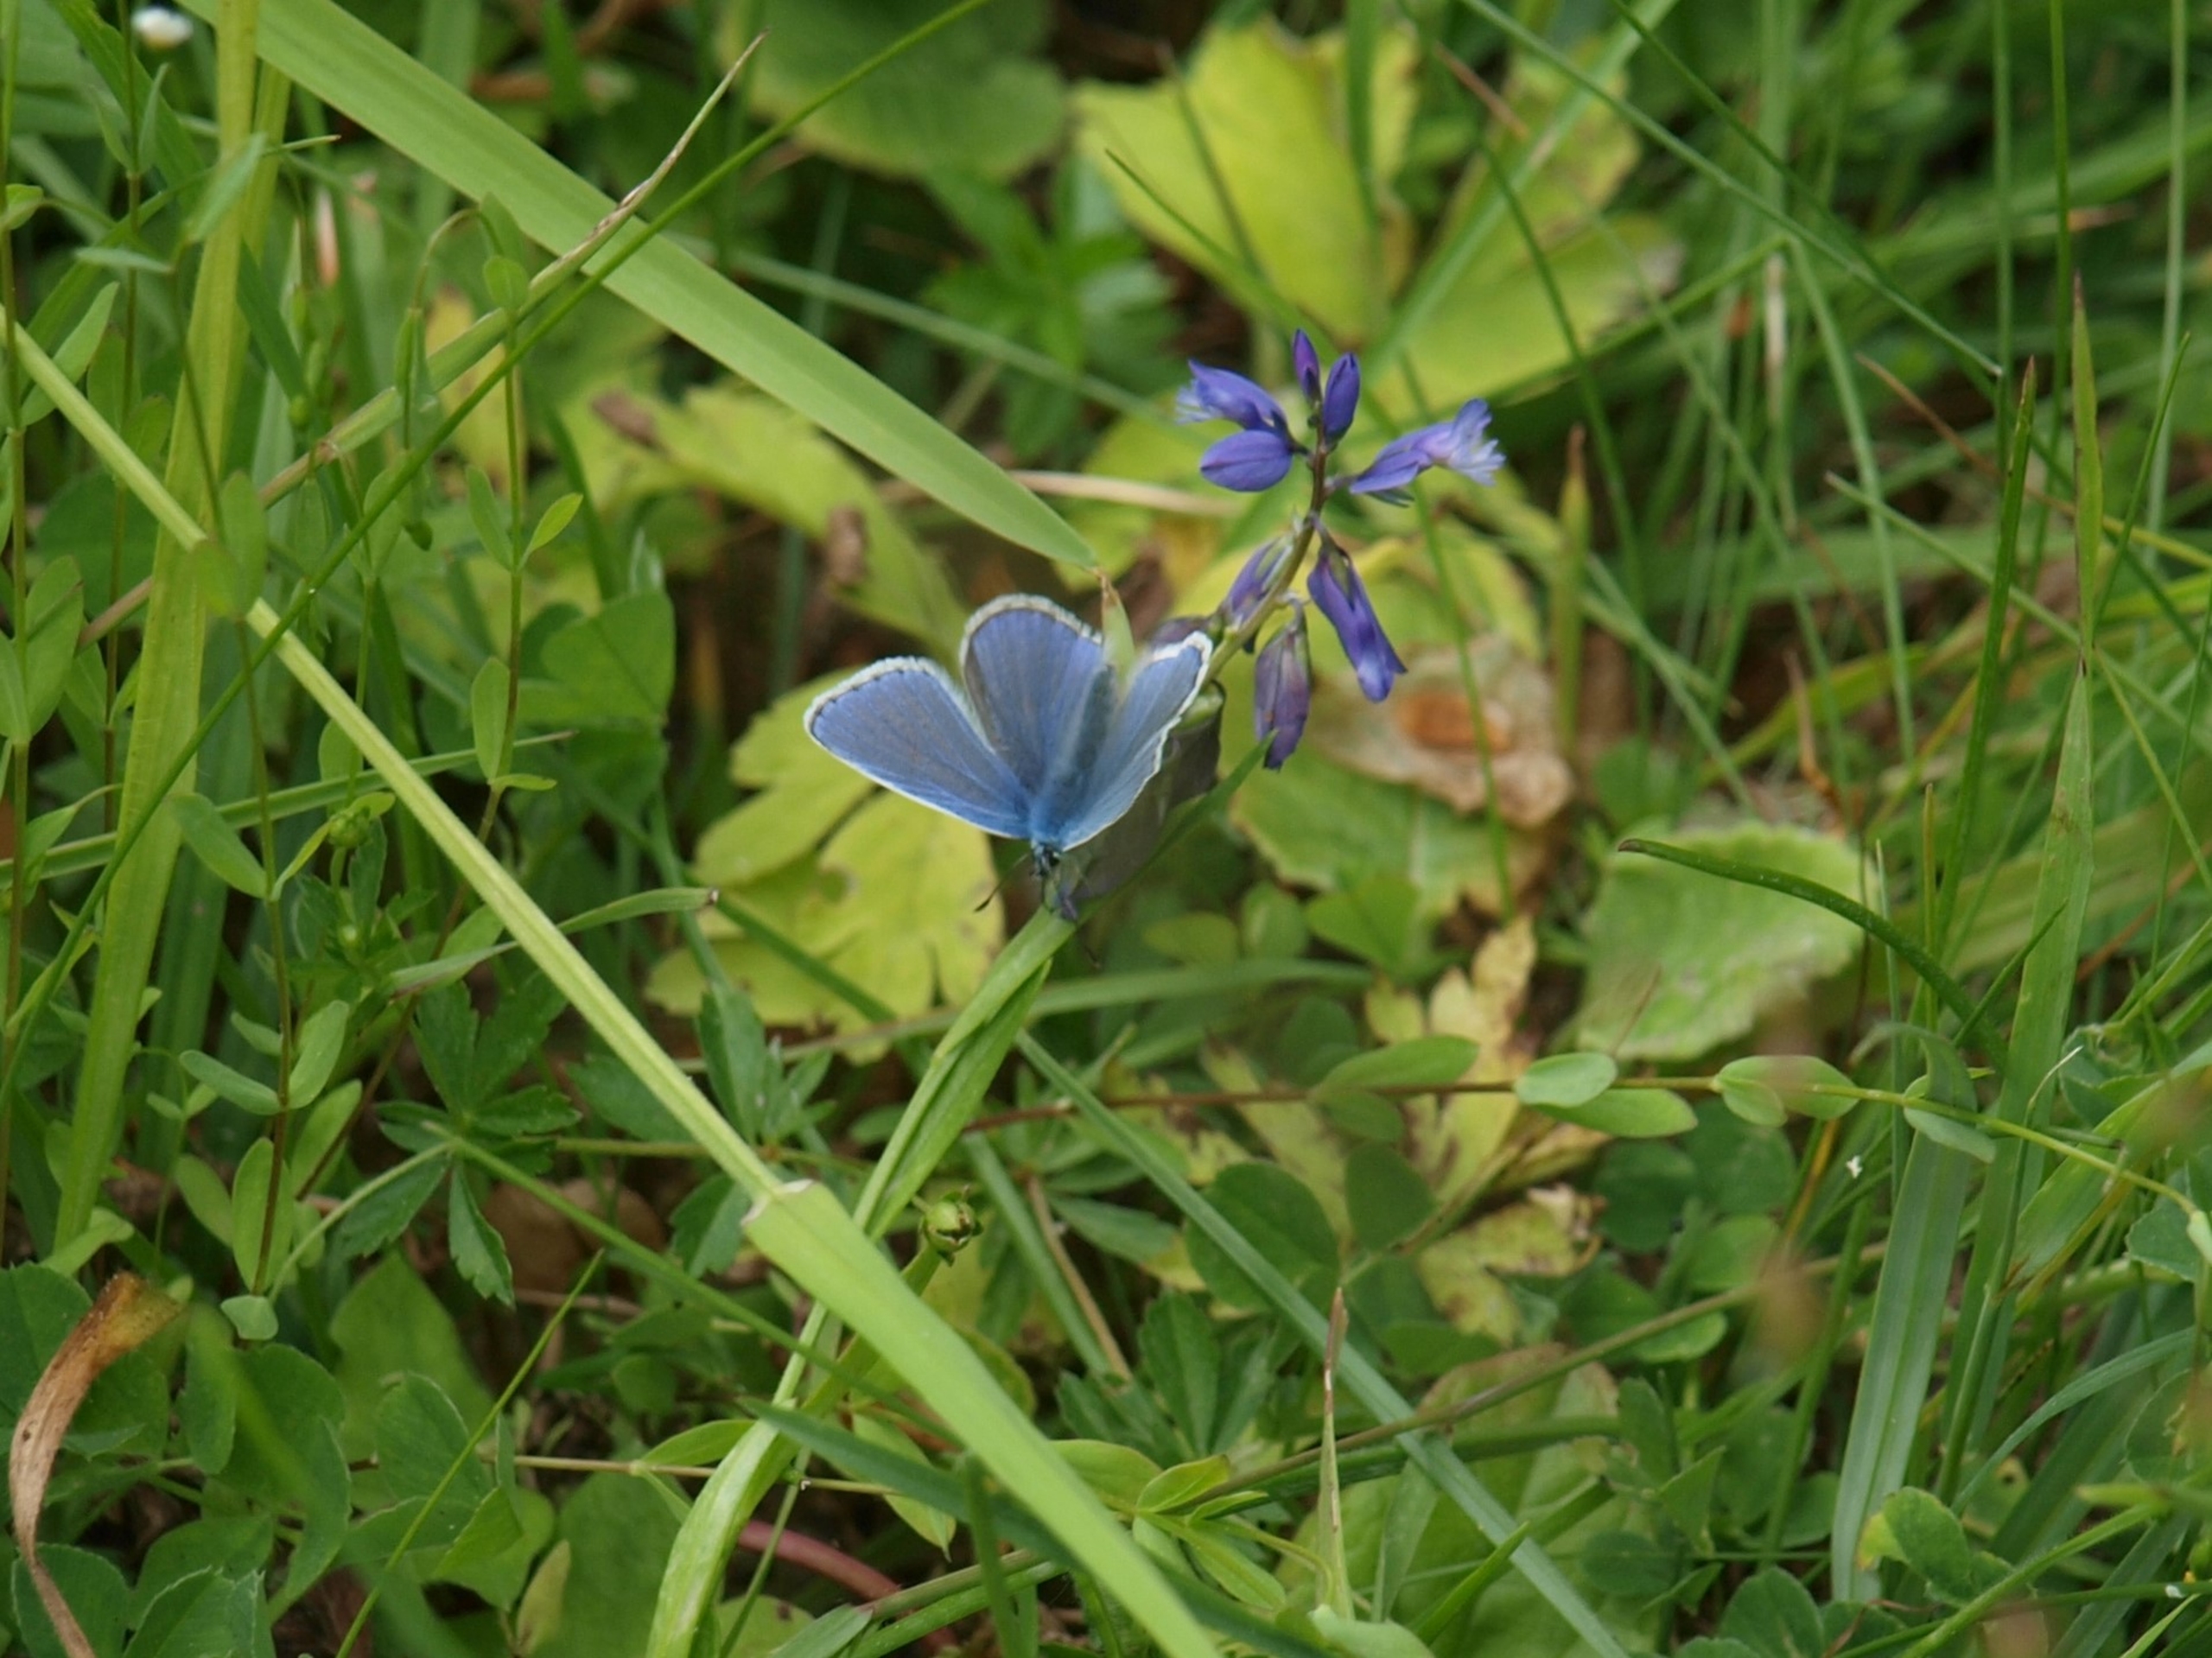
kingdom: Animalia
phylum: Arthropoda
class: Insecta
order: Lepidoptera
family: Lycaenidae
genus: Polyommatus
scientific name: Polyommatus icarus
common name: Almindelig blåfugl
